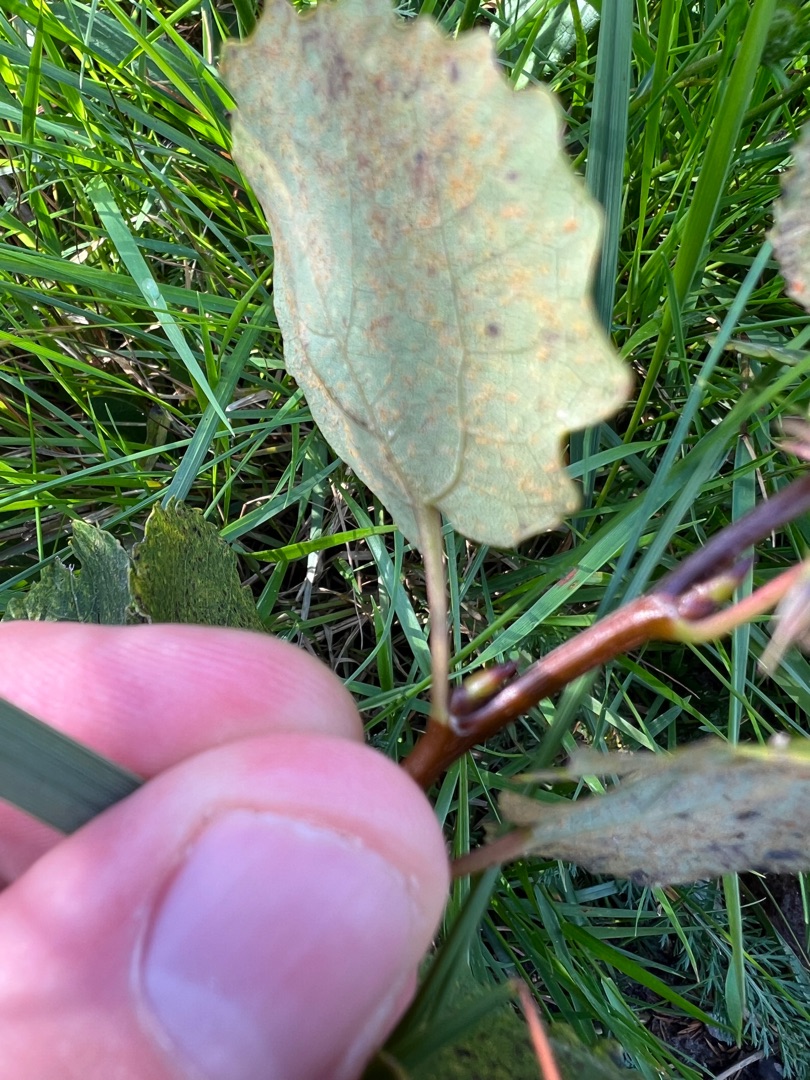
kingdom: Plantae
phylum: Tracheophyta
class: Magnoliopsida
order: Malpighiales
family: Salicaceae
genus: Populus
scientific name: Populus canescens
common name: Grå-poppel
